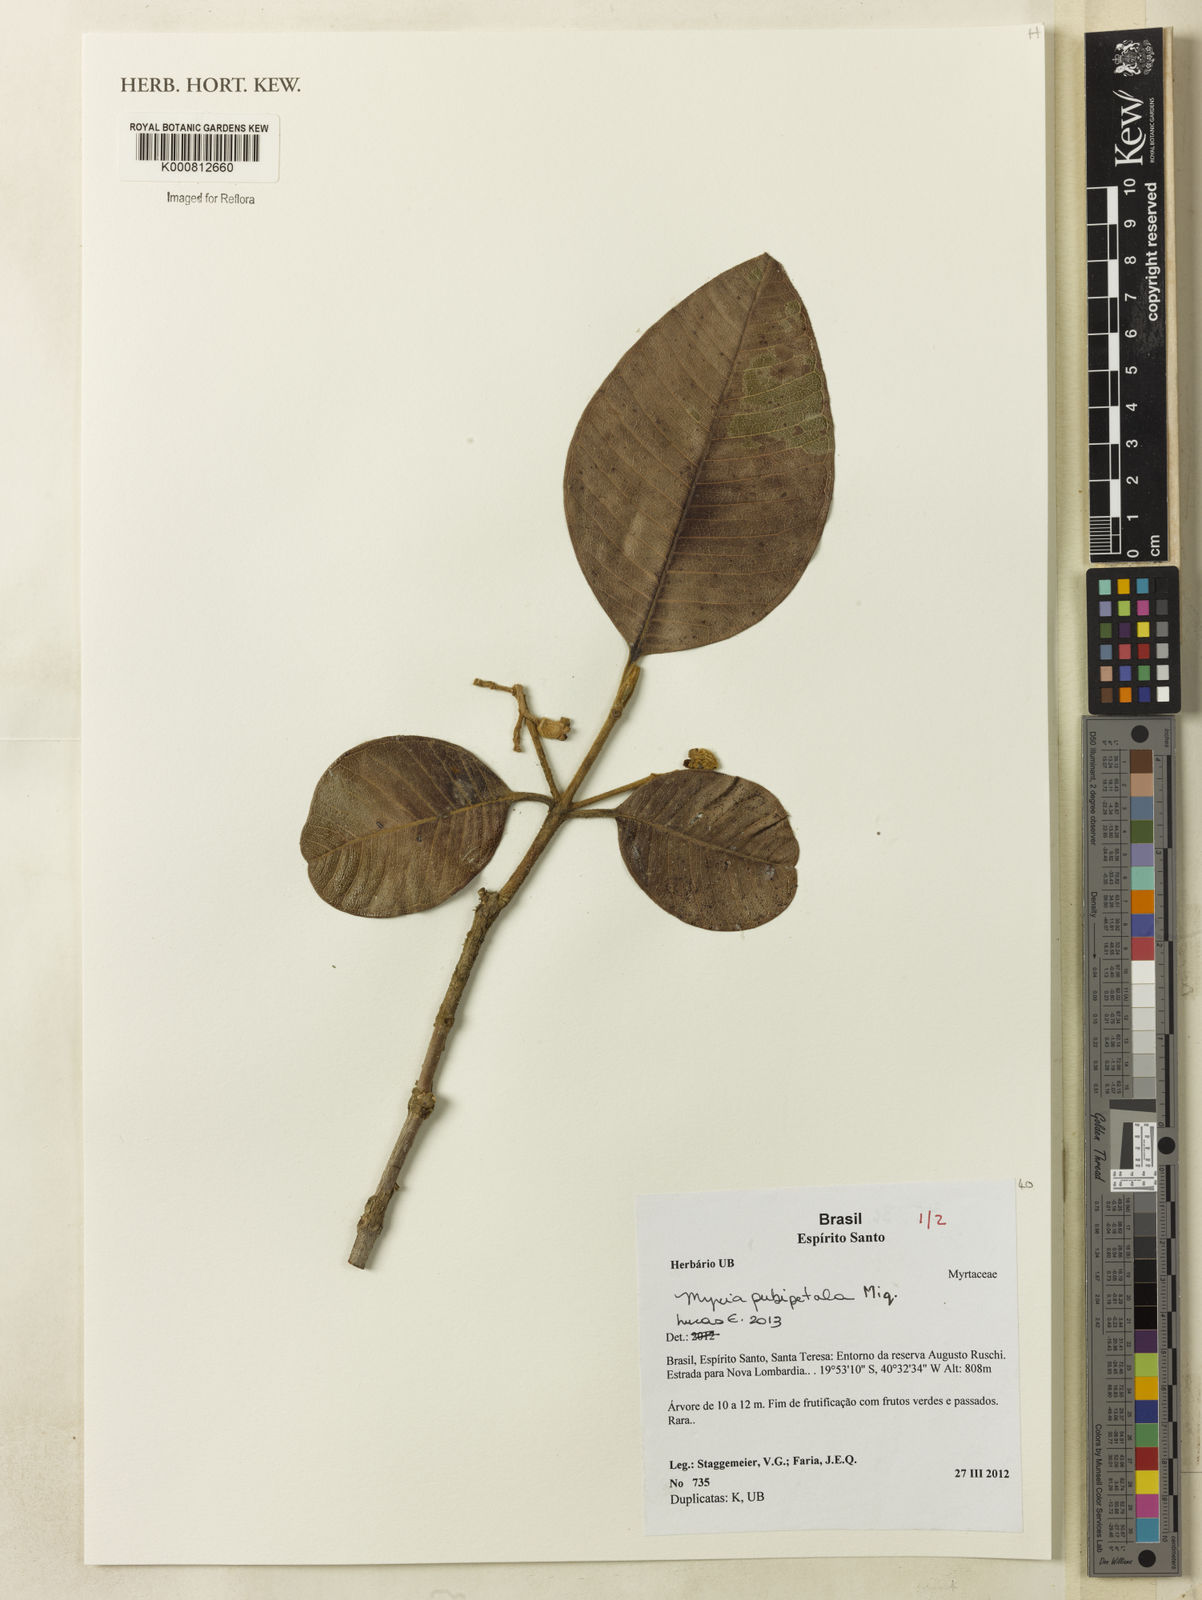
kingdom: Plantae
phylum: Tracheophyta
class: Magnoliopsida
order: Myrtales
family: Myrtaceae
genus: Myrcia
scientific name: Myrcia pubipetala
